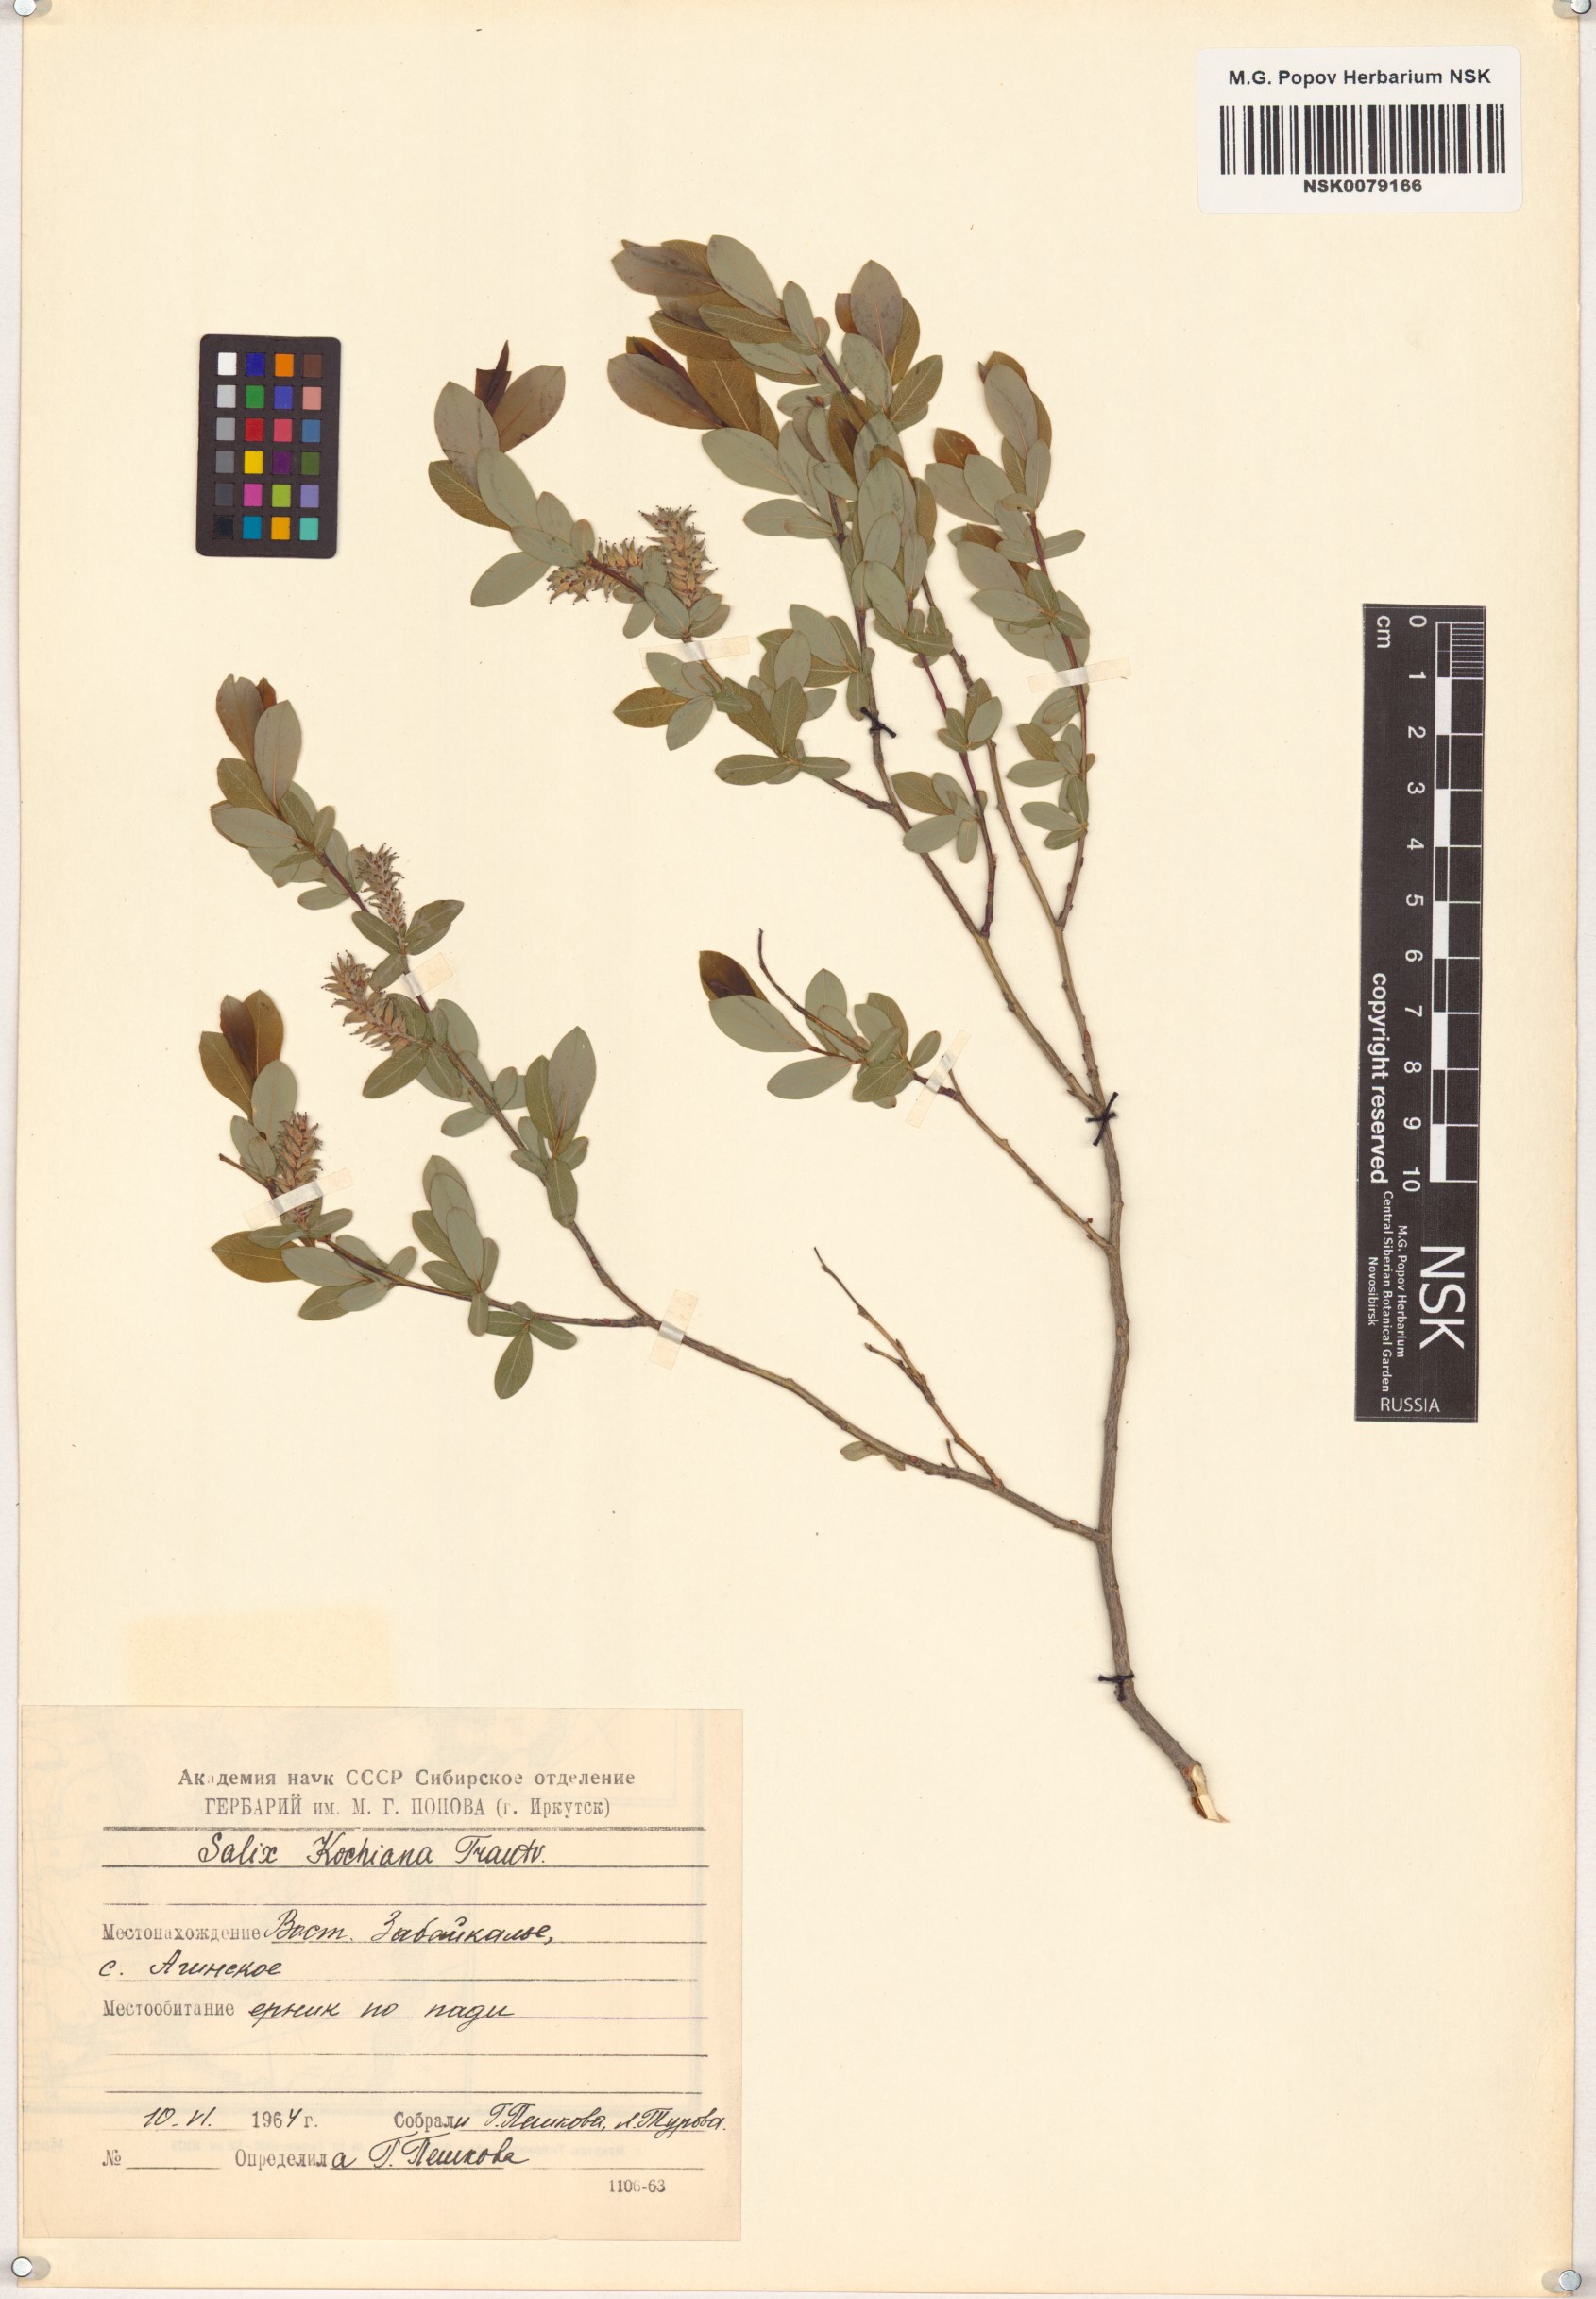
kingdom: Plantae
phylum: Tracheophyta
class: Magnoliopsida
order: Malpighiales
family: Salicaceae
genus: Salix
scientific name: Salix kochiana
